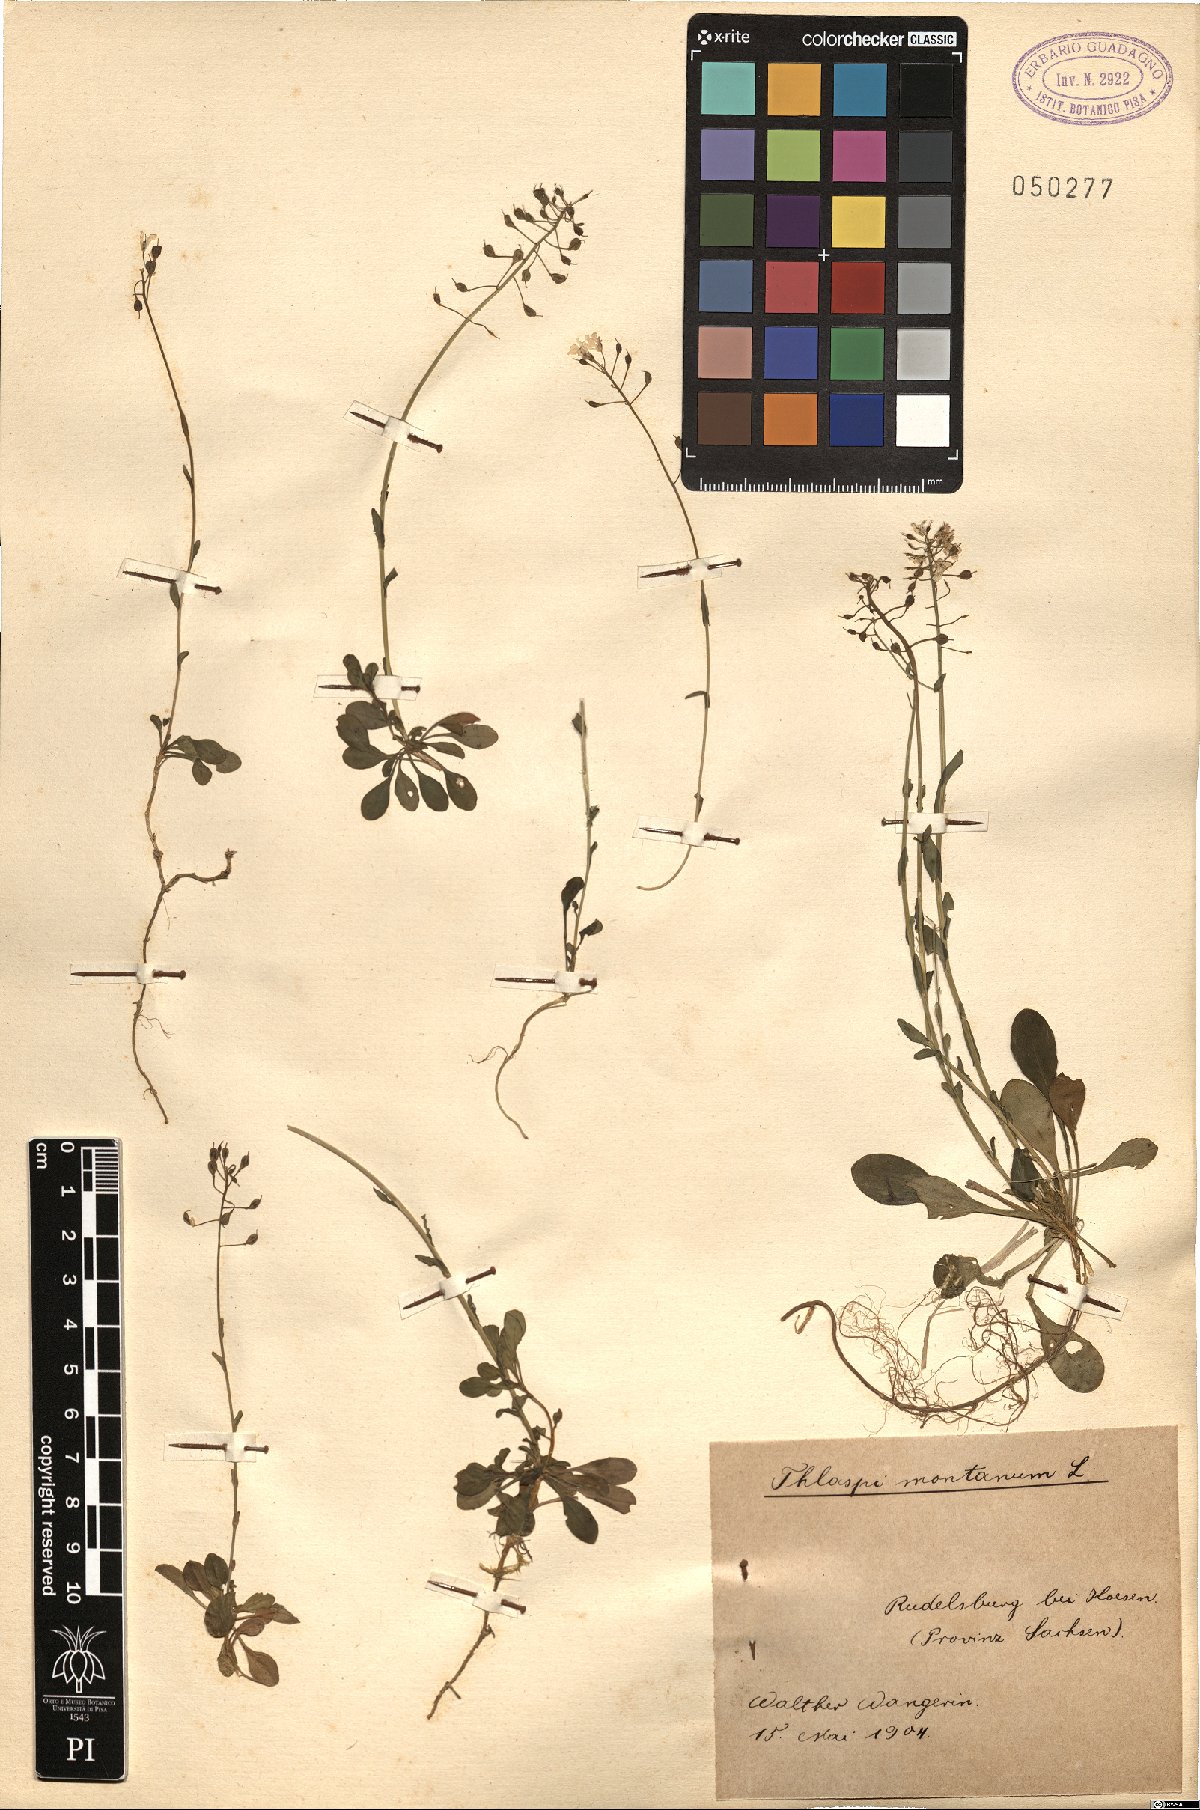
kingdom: Plantae
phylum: Tracheophyta
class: Magnoliopsida
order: Brassicales
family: Brassicaceae
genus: Noccaea
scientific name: Noccaea montana
